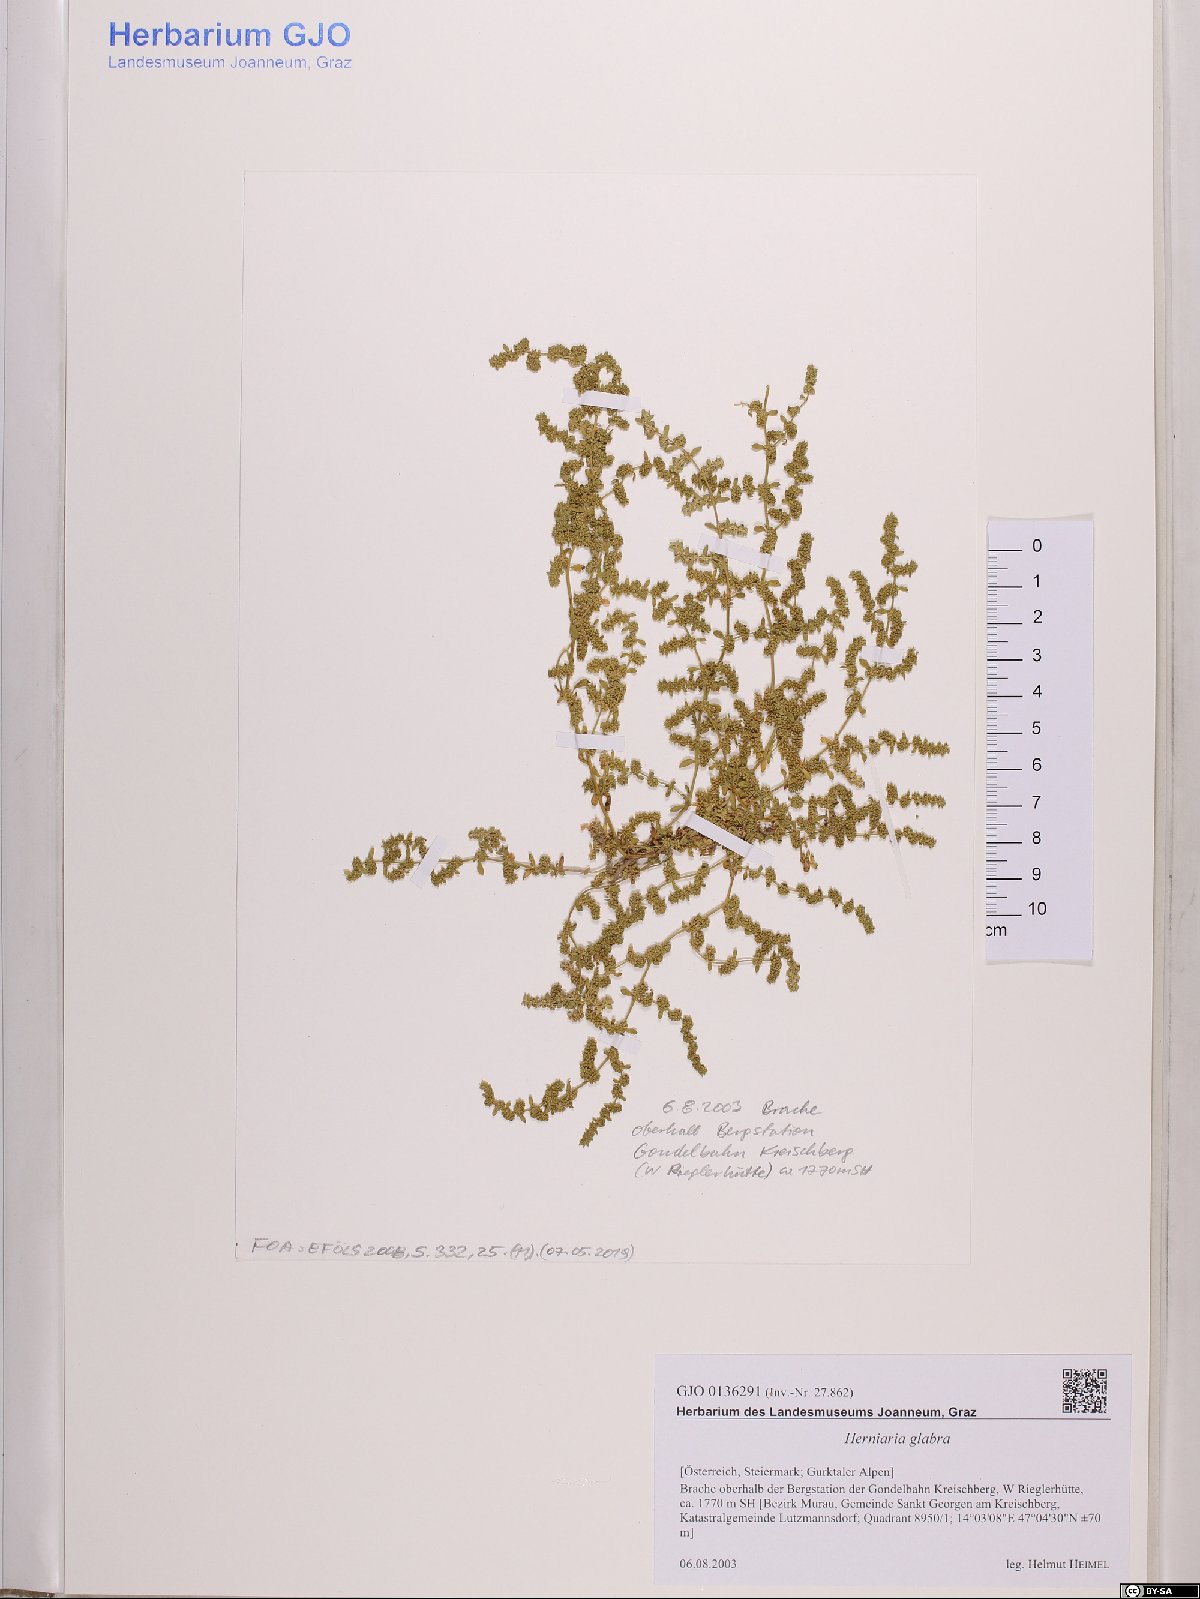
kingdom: Plantae
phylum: Tracheophyta
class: Magnoliopsida
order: Caryophyllales
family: Caryophyllaceae
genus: Herniaria
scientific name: Herniaria glabra
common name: Smooth rupturewort
